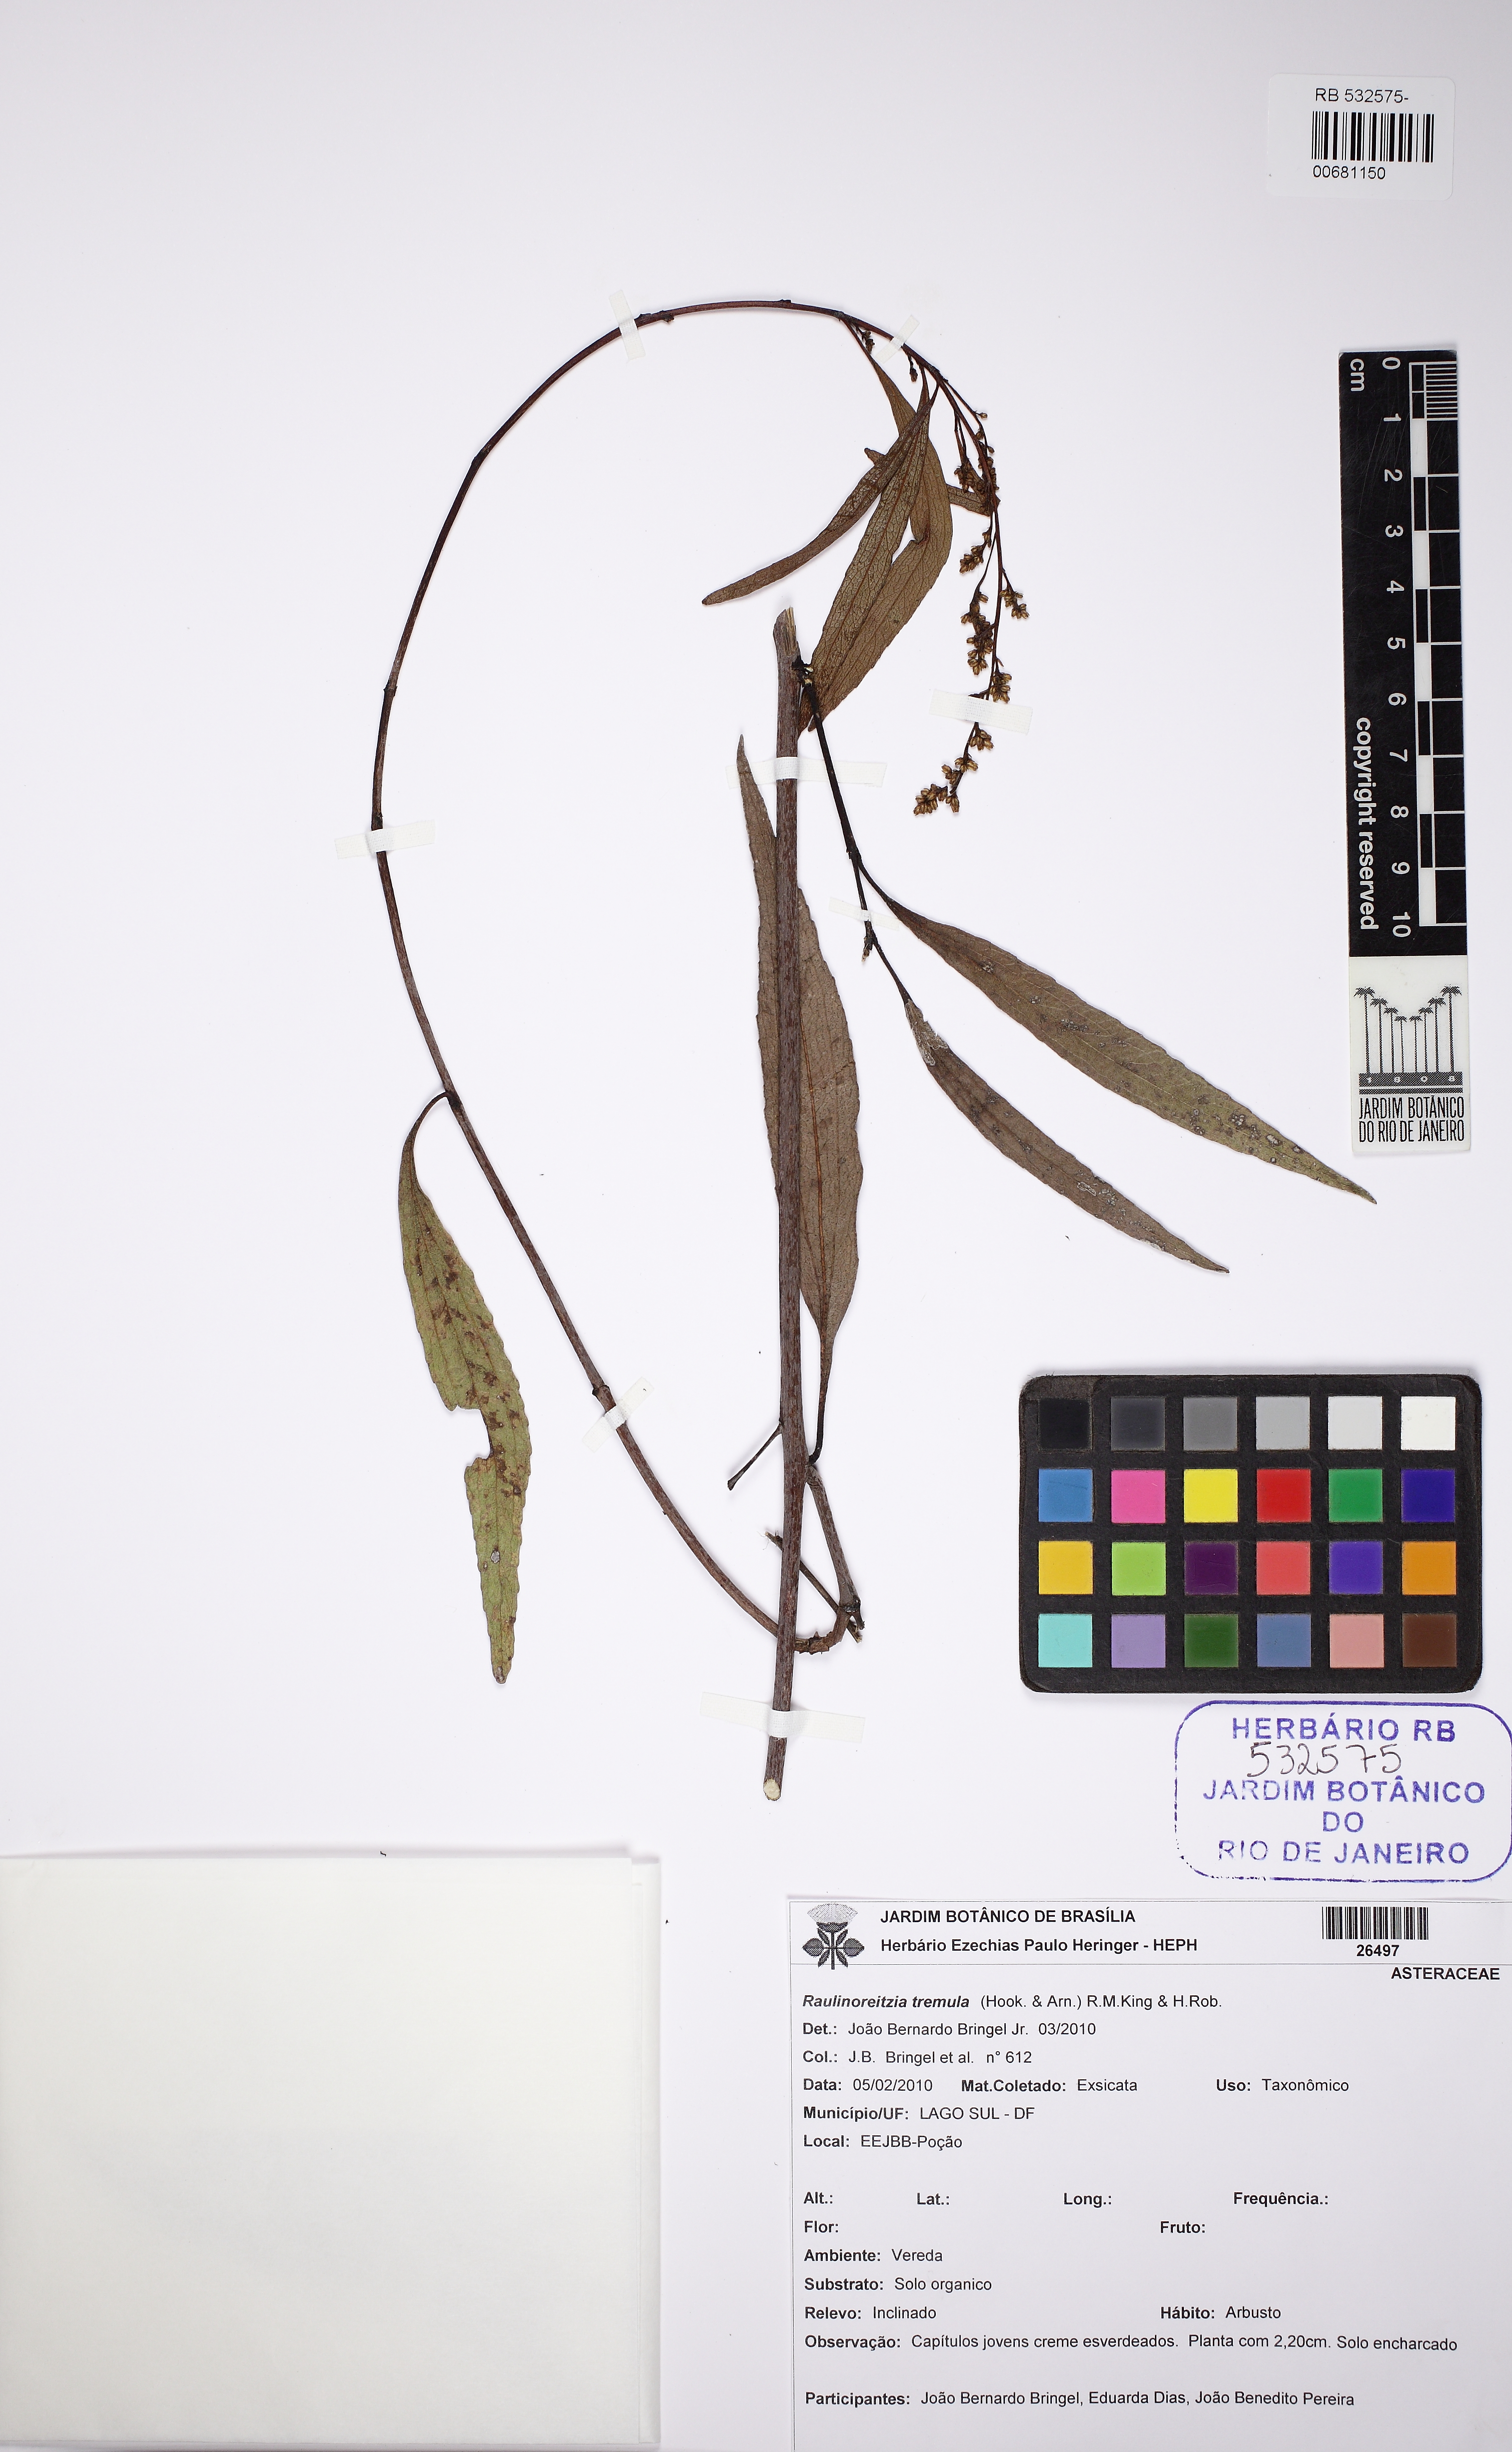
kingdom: Plantae
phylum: Tracheophyta
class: Magnoliopsida
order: Asterales
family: Asteraceae
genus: Raulinoreitzia
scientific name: Raulinoreitzia tremula
